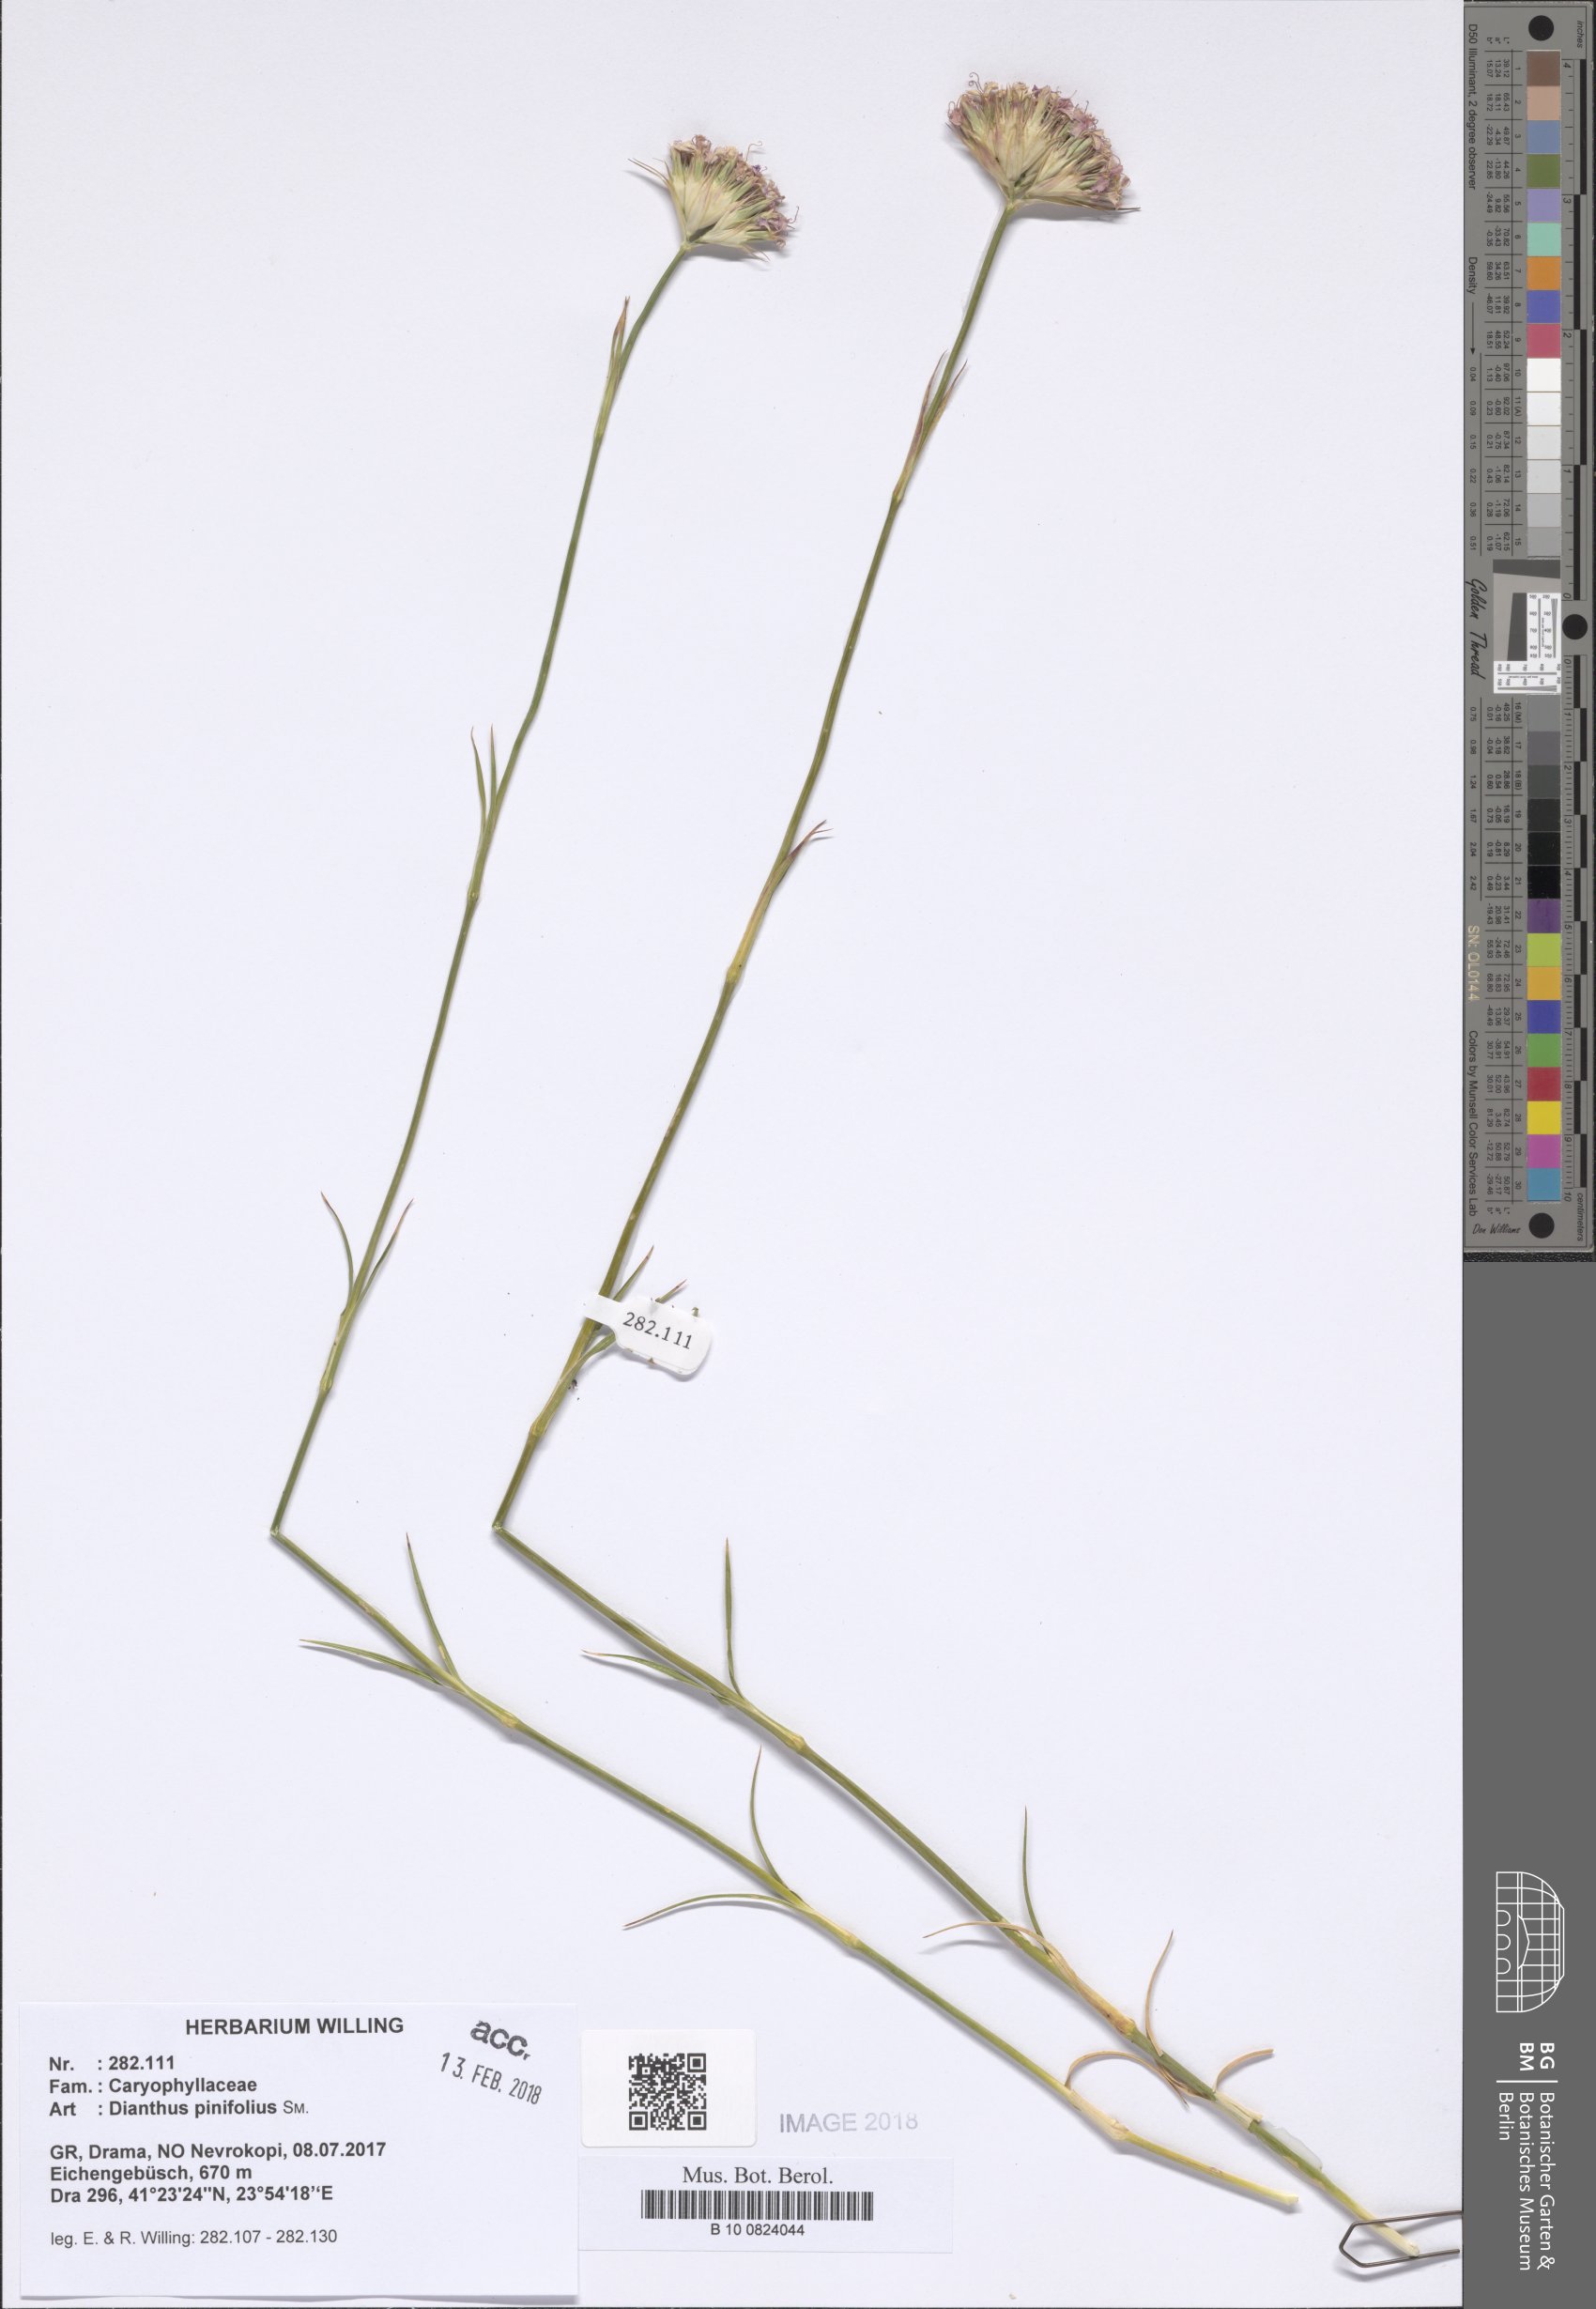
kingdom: Plantae
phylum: Tracheophyta
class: Magnoliopsida
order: Caryophyllales
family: Caryophyllaceae
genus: Dianthus
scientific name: Dianthus pinifolius
